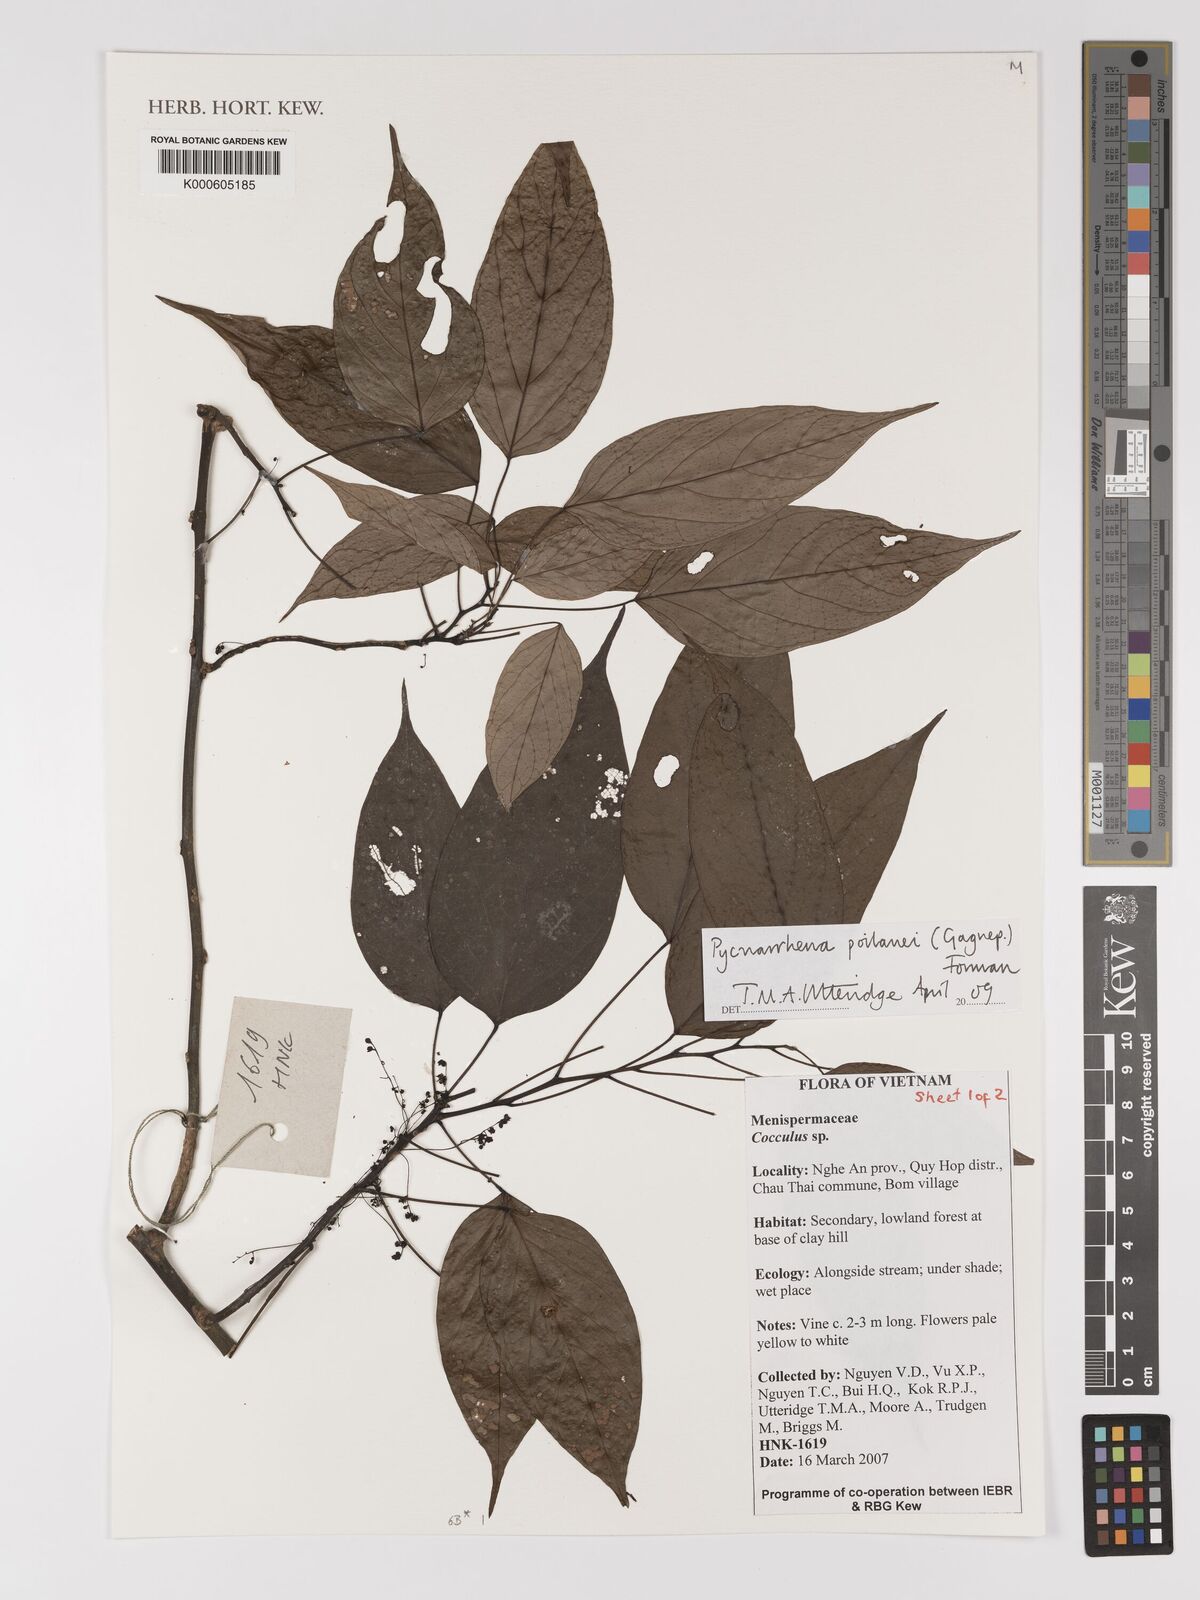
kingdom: Plantae
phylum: Tracheophyta
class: Magnoliopsida
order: Ranunculales
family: Menispermaceae
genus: Pycnarrhena
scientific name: Pycnarrhena poilanei
